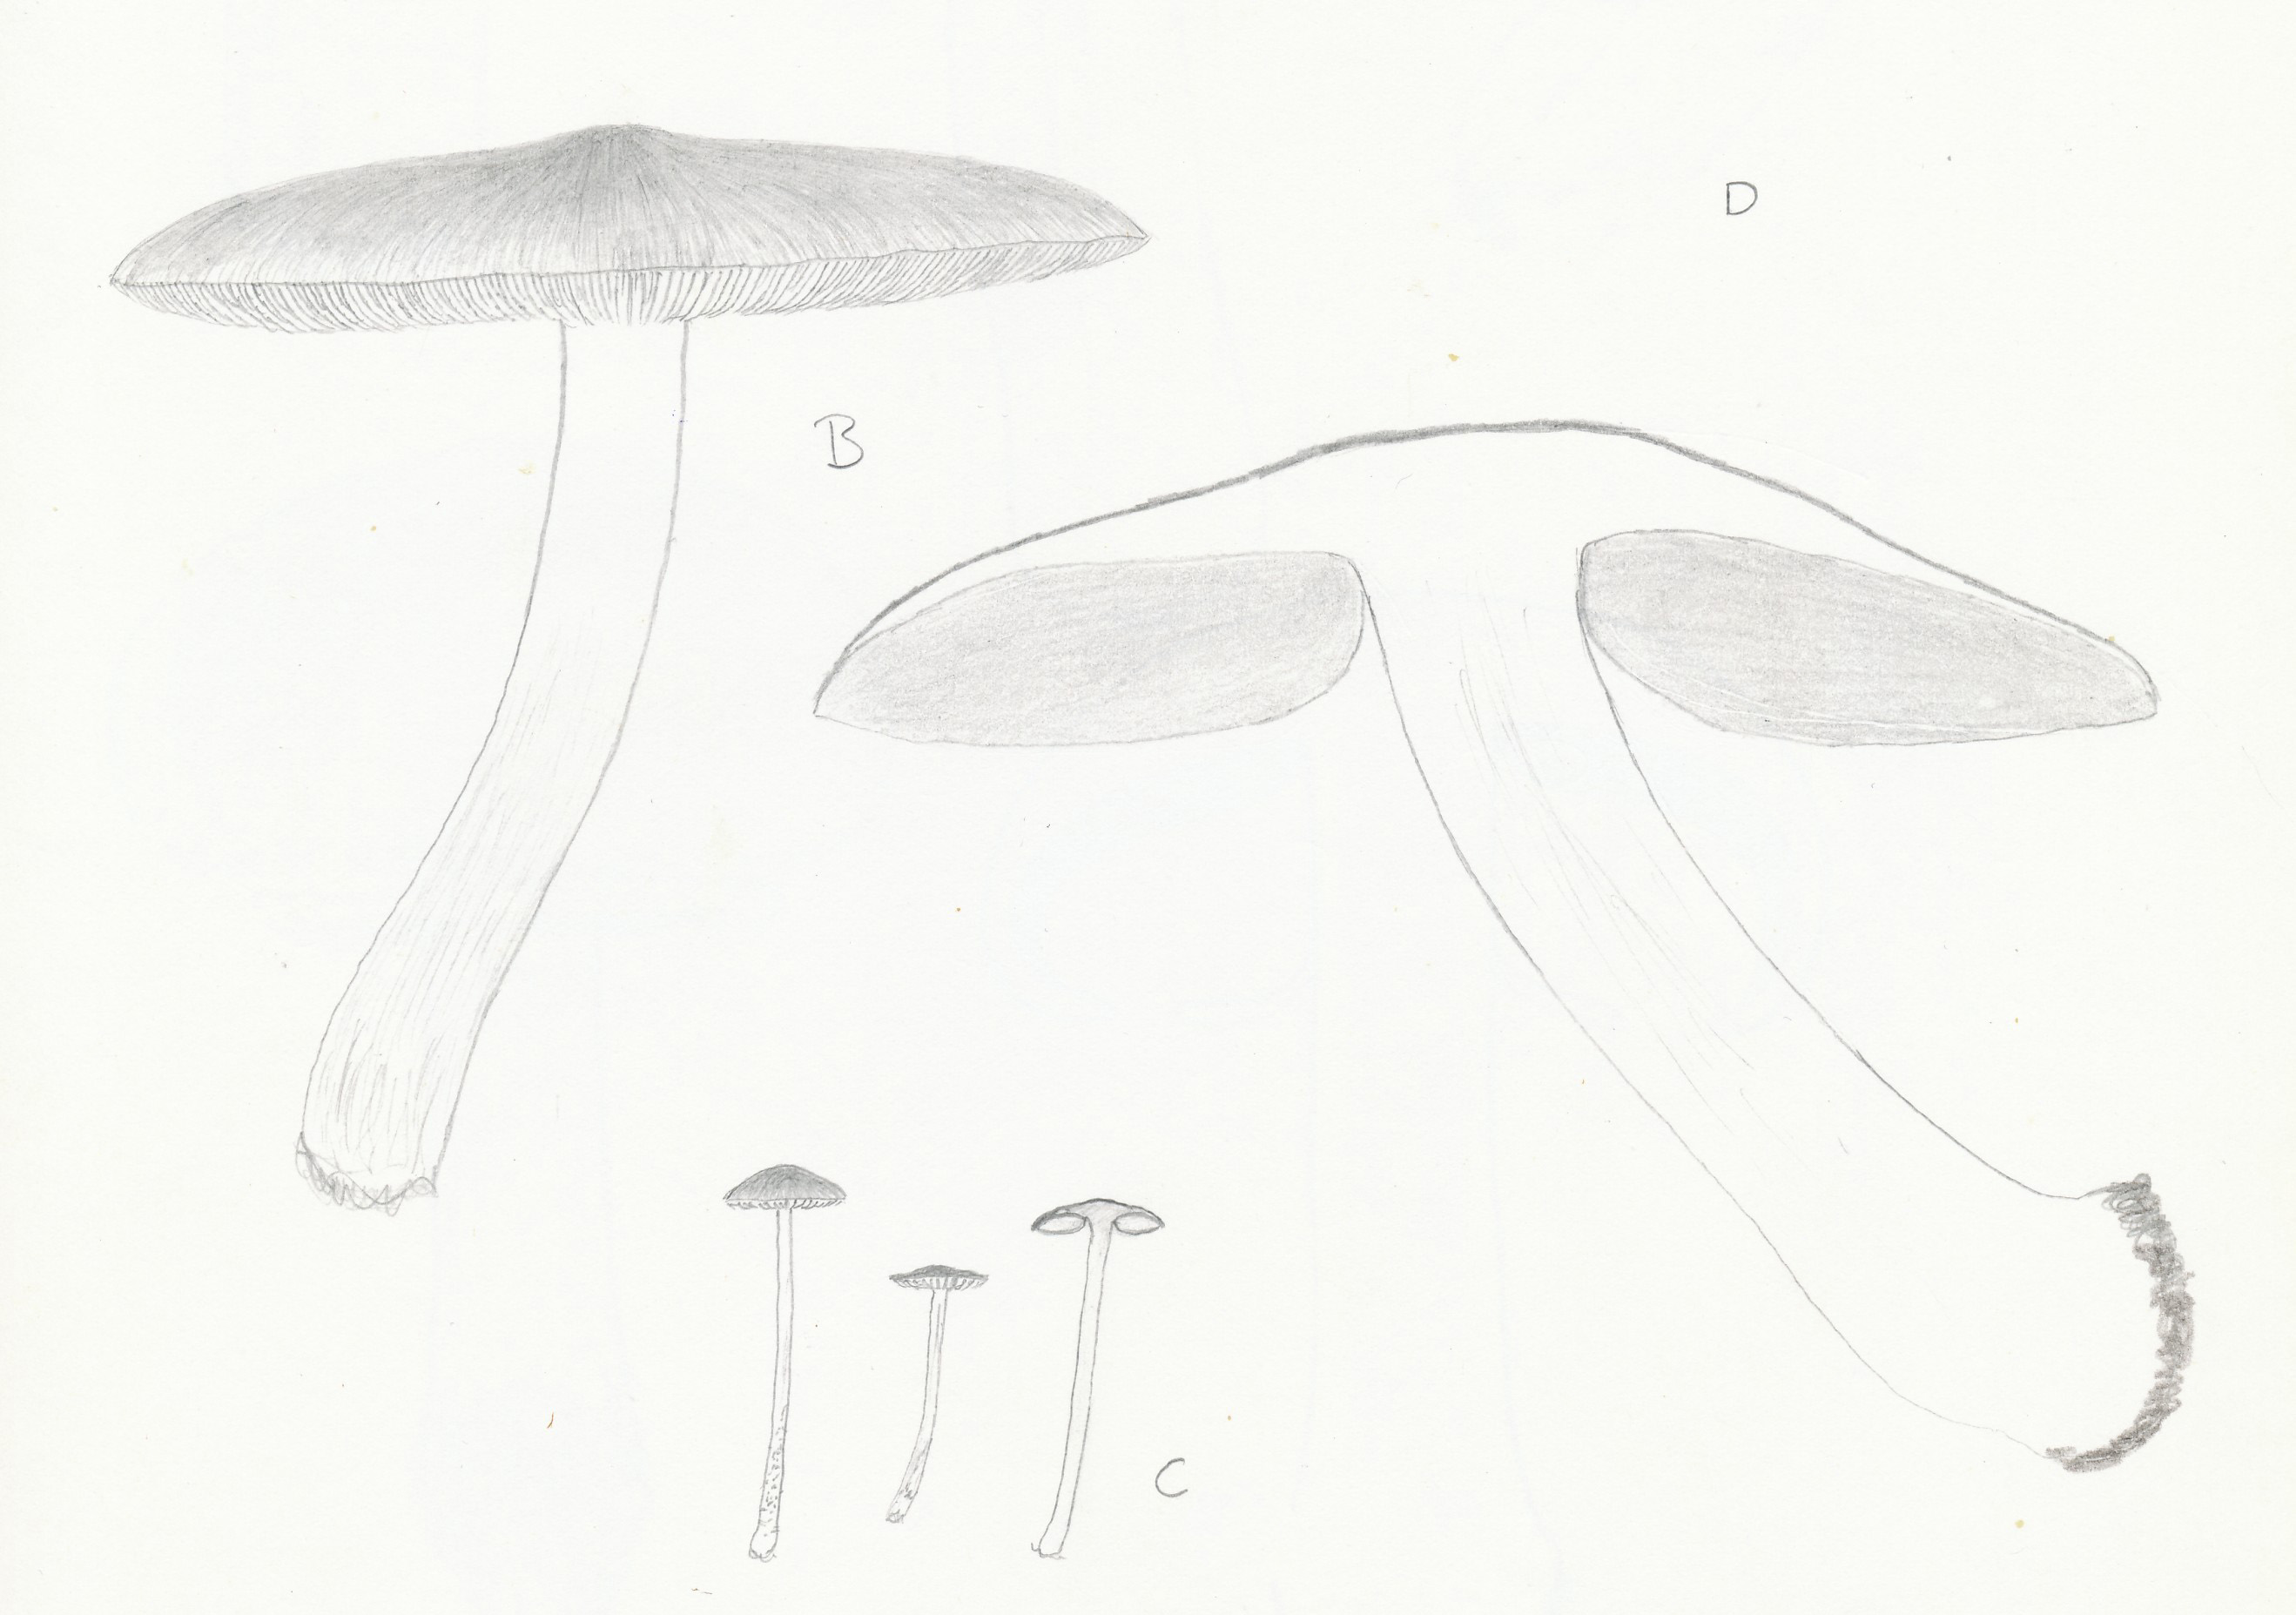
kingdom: Fungi
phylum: Basidiomycota
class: Agaricomycetes
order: Agaricales
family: Pluteaceae
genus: Pluteus
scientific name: Pluteus cervinus
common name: sodfarvet skærmhat
